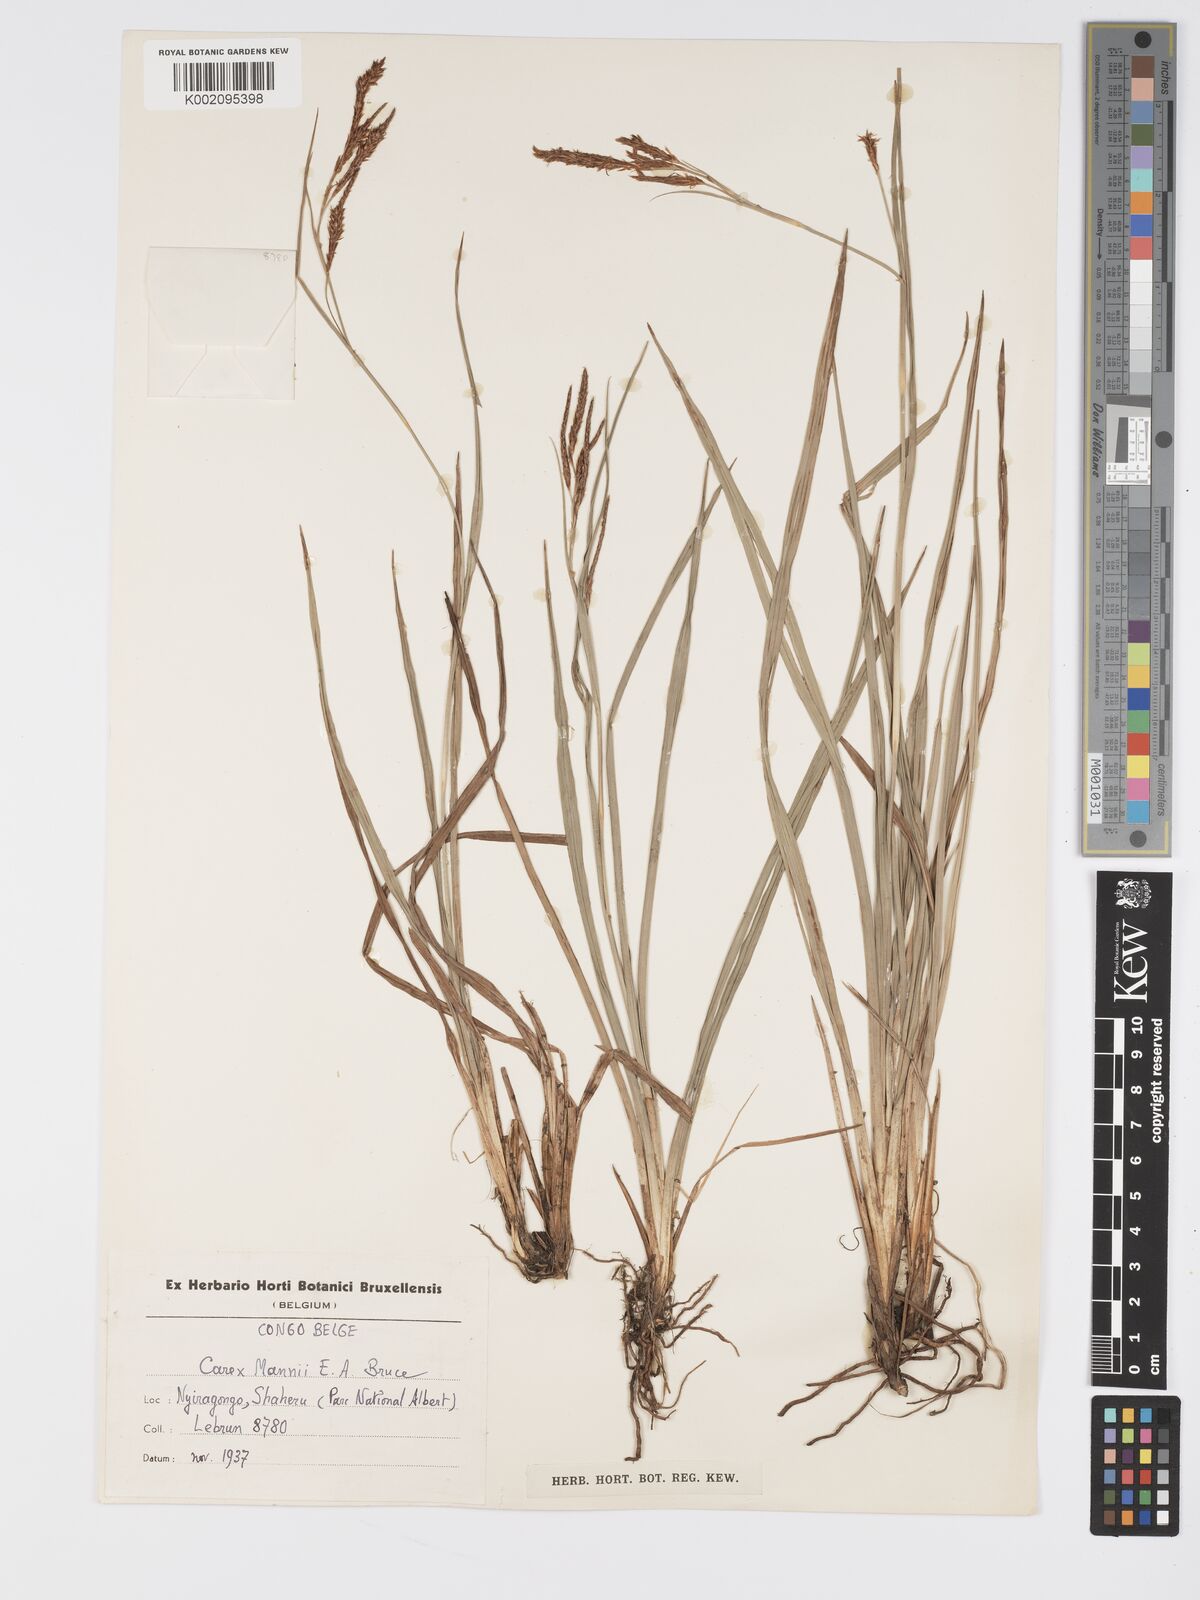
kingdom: Plantae
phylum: Tracheophyta
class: Liliopsida
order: Poales
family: Cyperaceae
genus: Carex
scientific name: Carex petitiana
